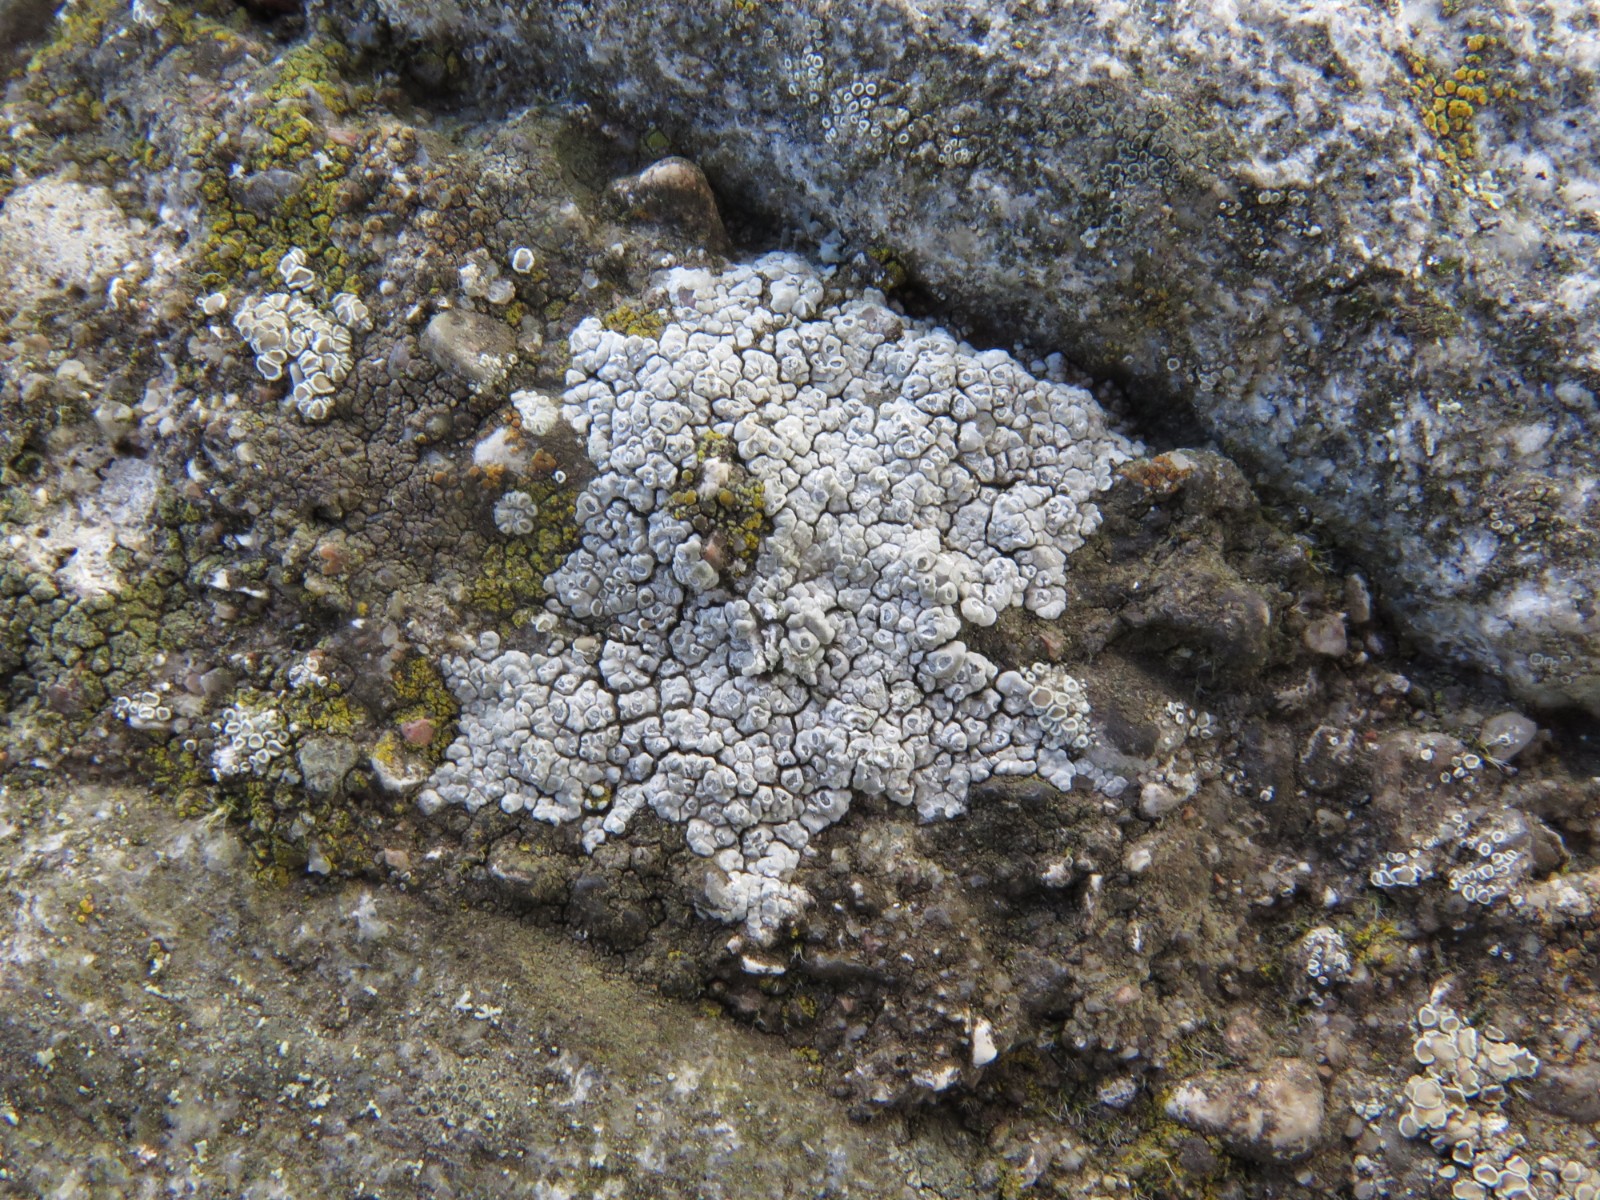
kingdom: Fungi
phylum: Ascomycota
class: Lecanoromycetes
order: Pertusariales
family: Megasporaceae
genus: Circinaria
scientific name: Circinaria contorta
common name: indviklet hulskivelav
